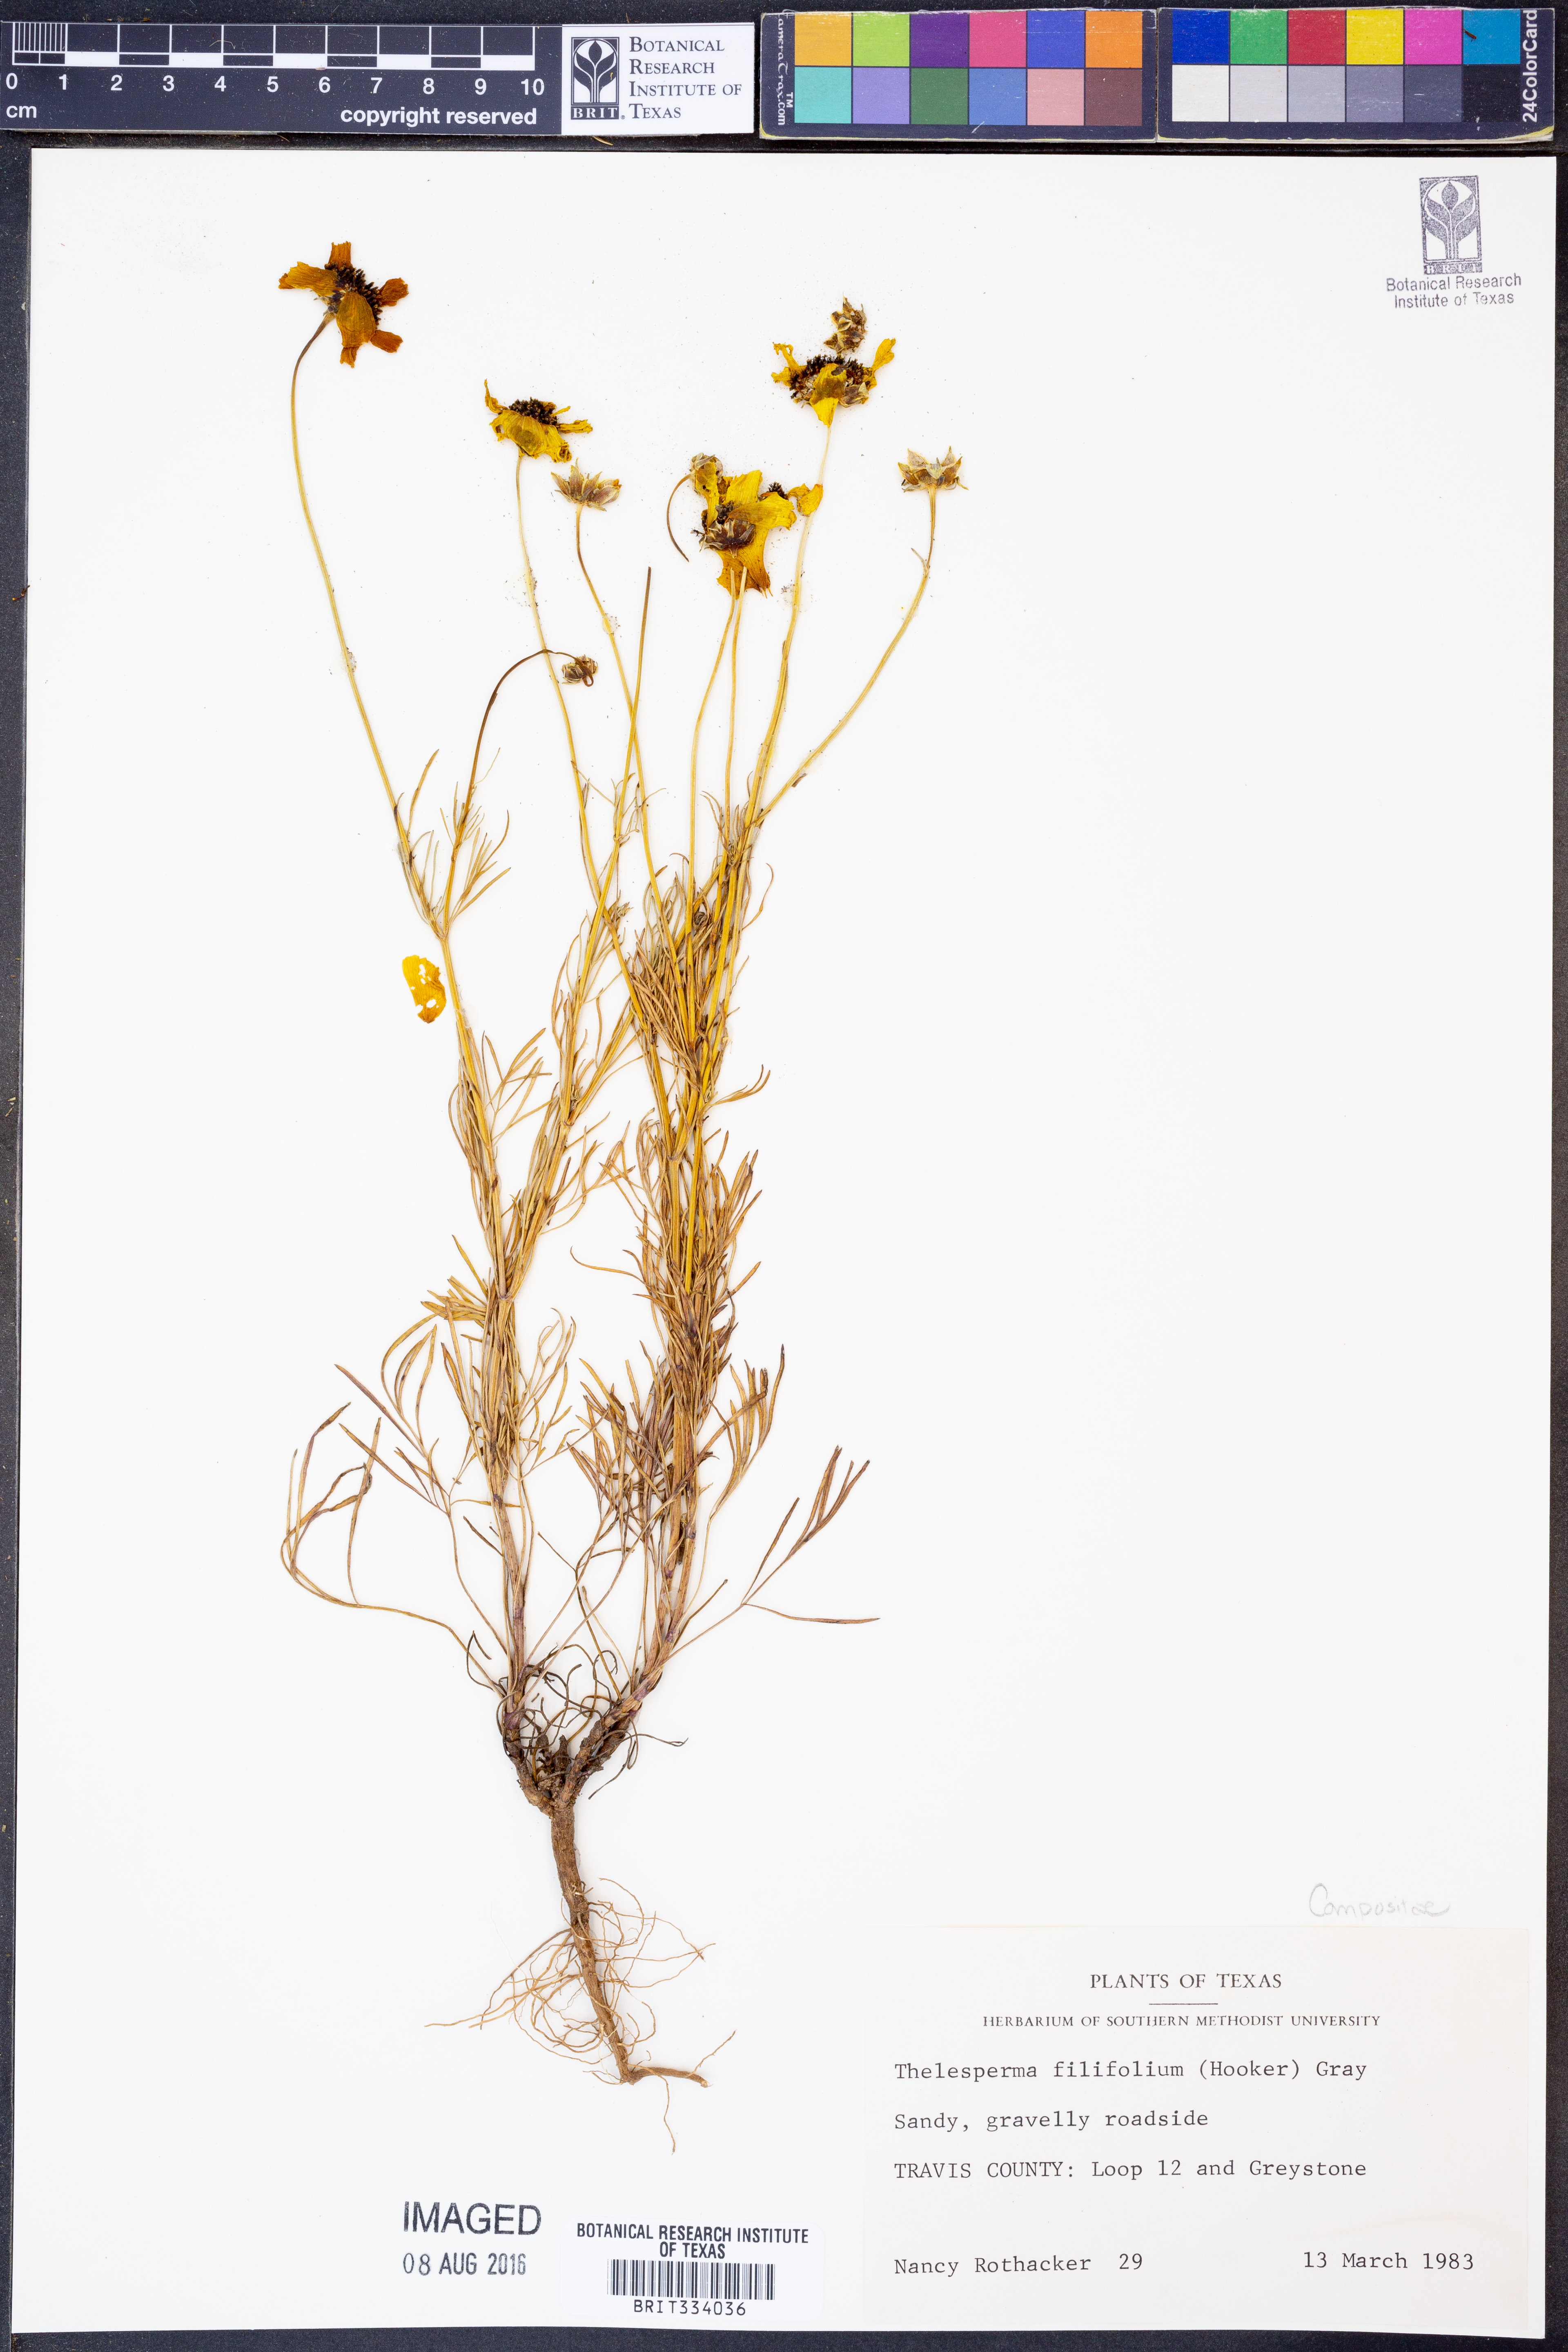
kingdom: Plantae
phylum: Tracheophyta
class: Magnoliopsida
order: Asterales
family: Asteraceae
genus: Thelesperma
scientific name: Thelesperma filifolium
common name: Stiff greenthread
